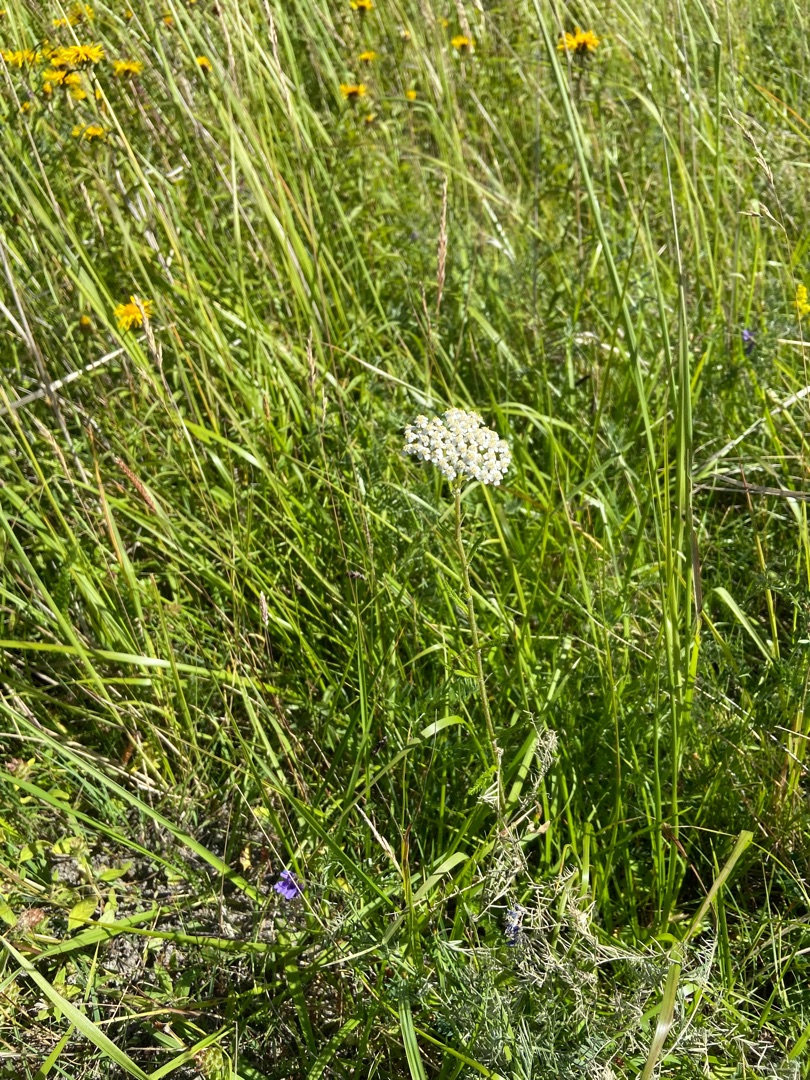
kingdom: Plantae
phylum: Tracheophyta
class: Magnoliopsida
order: Asterales
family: Asteraceae
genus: Achillea
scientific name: Achillea millefolium
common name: Almindelig røllike
